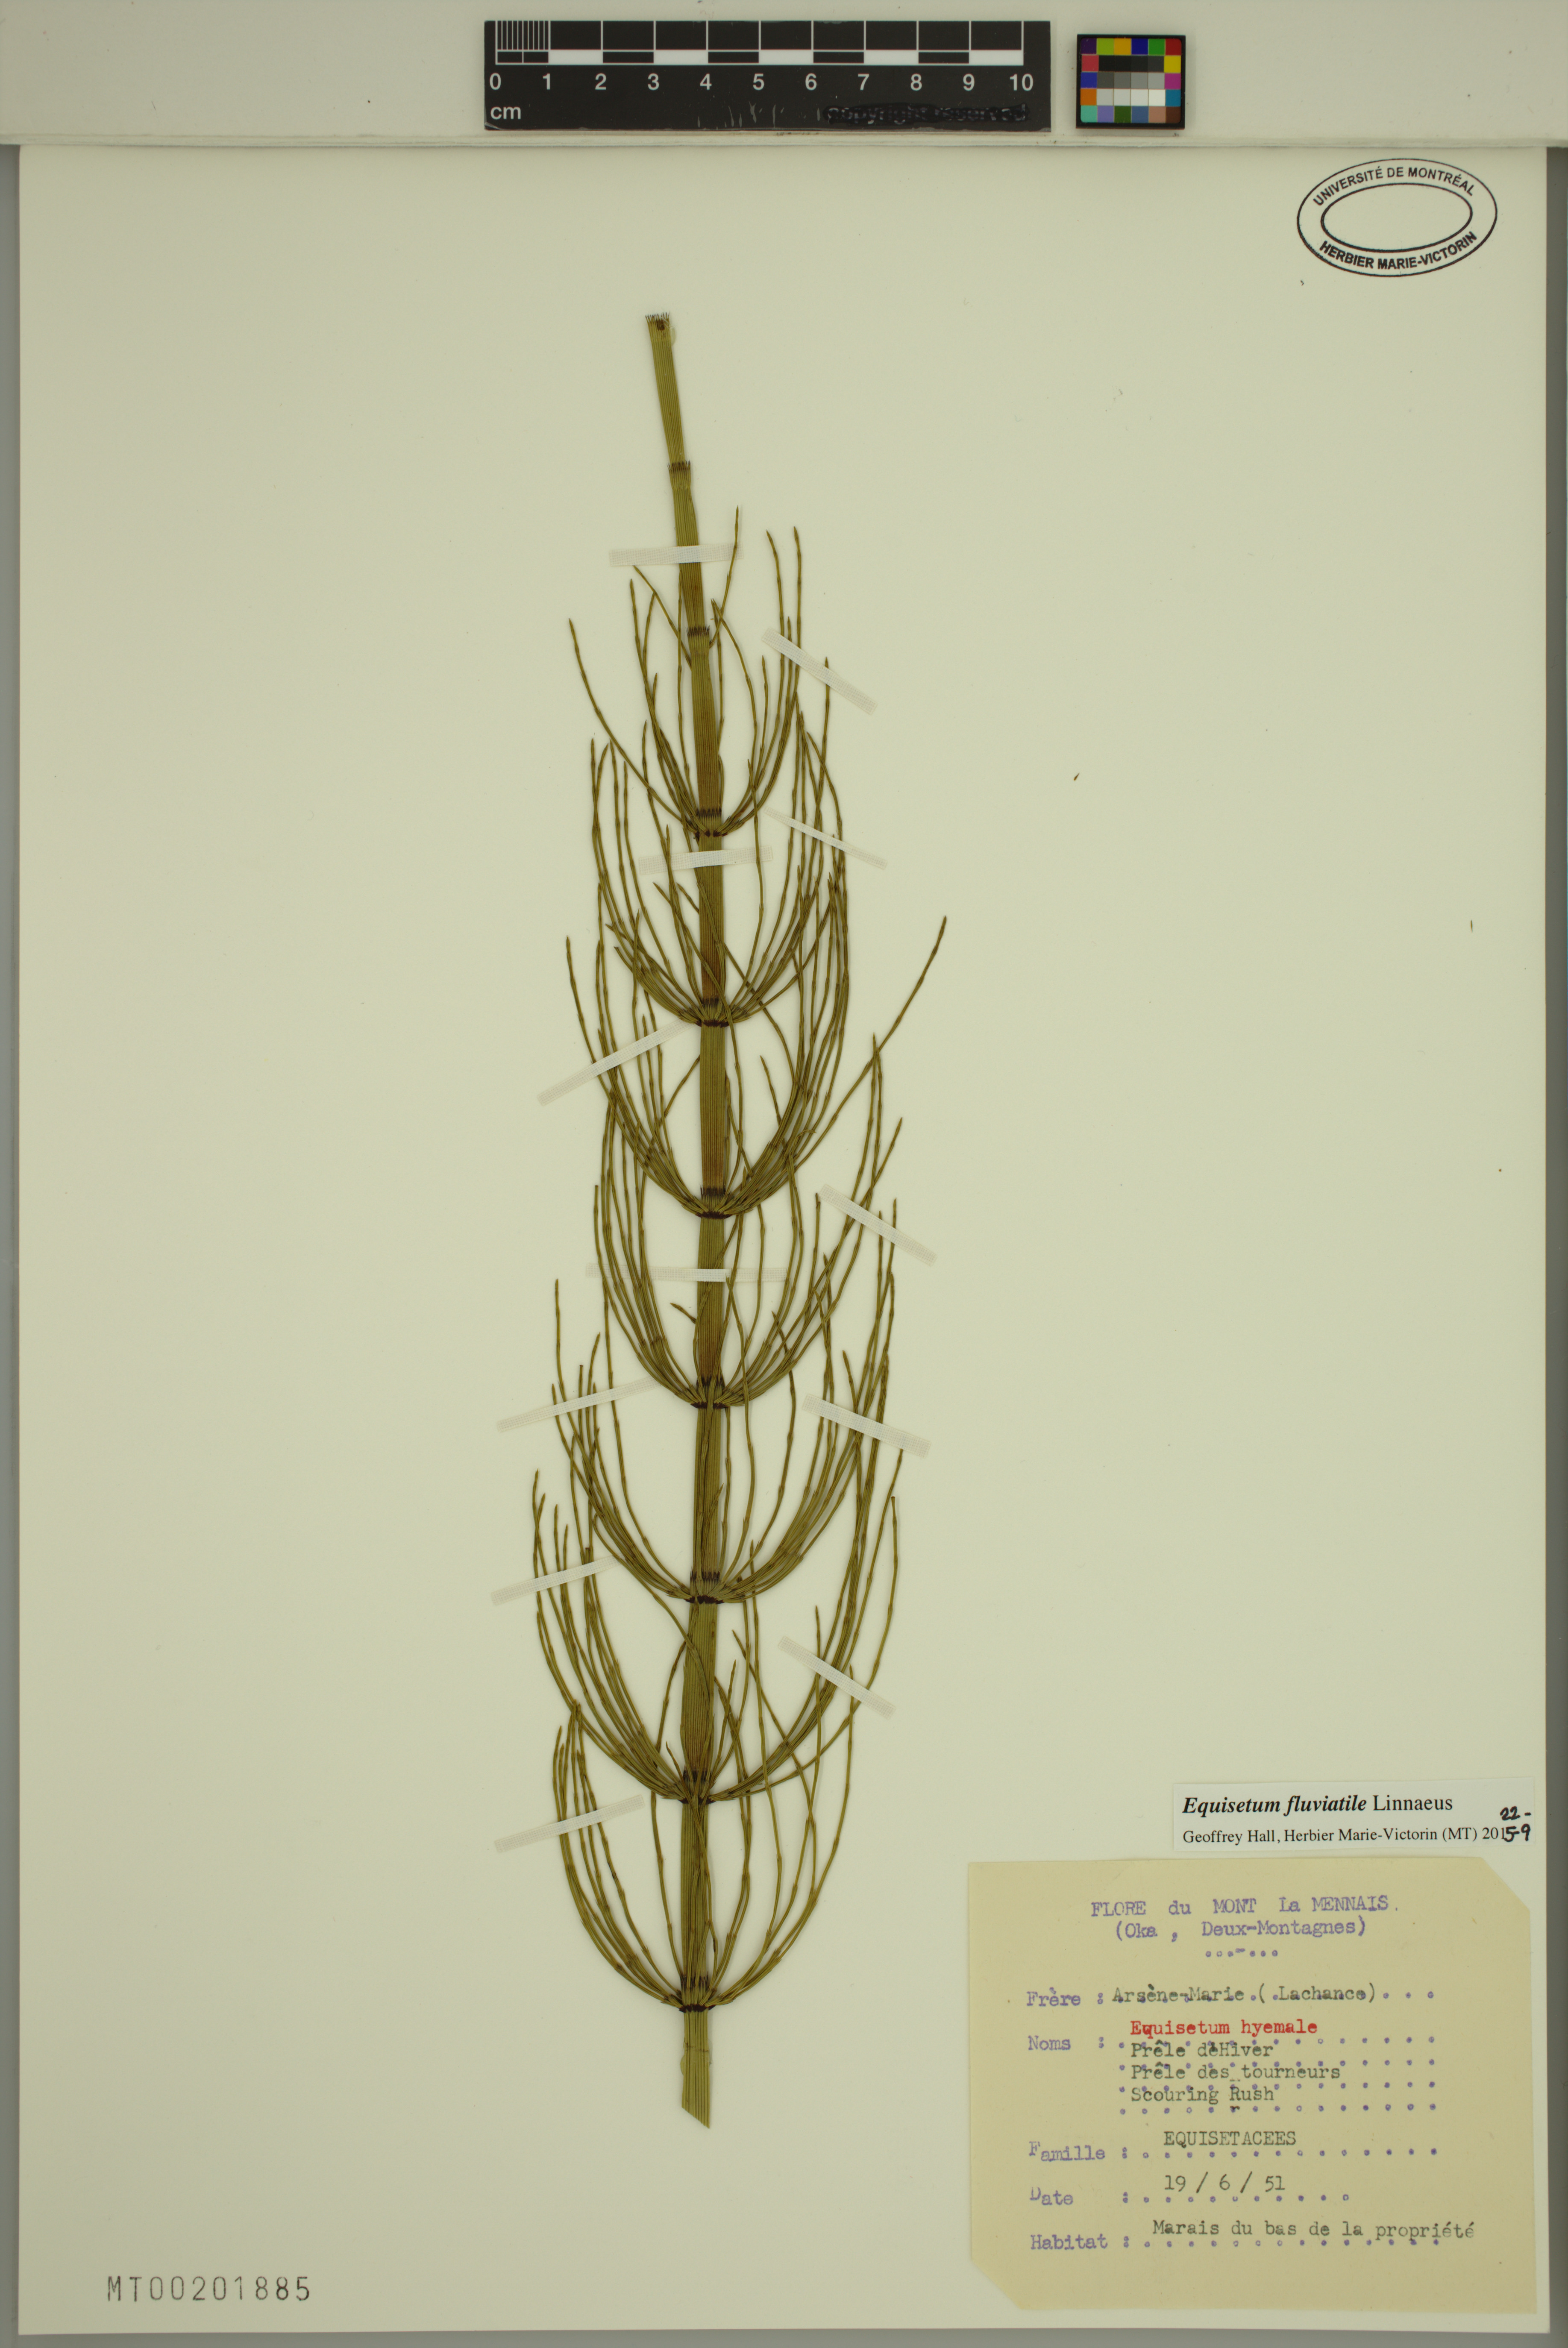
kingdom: Plantae
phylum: Tracheophyta
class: Polypodiopsida
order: Equisetales
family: Equisetaceae
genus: Equisetum
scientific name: Equisetum fluviatile
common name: Water horsetail
